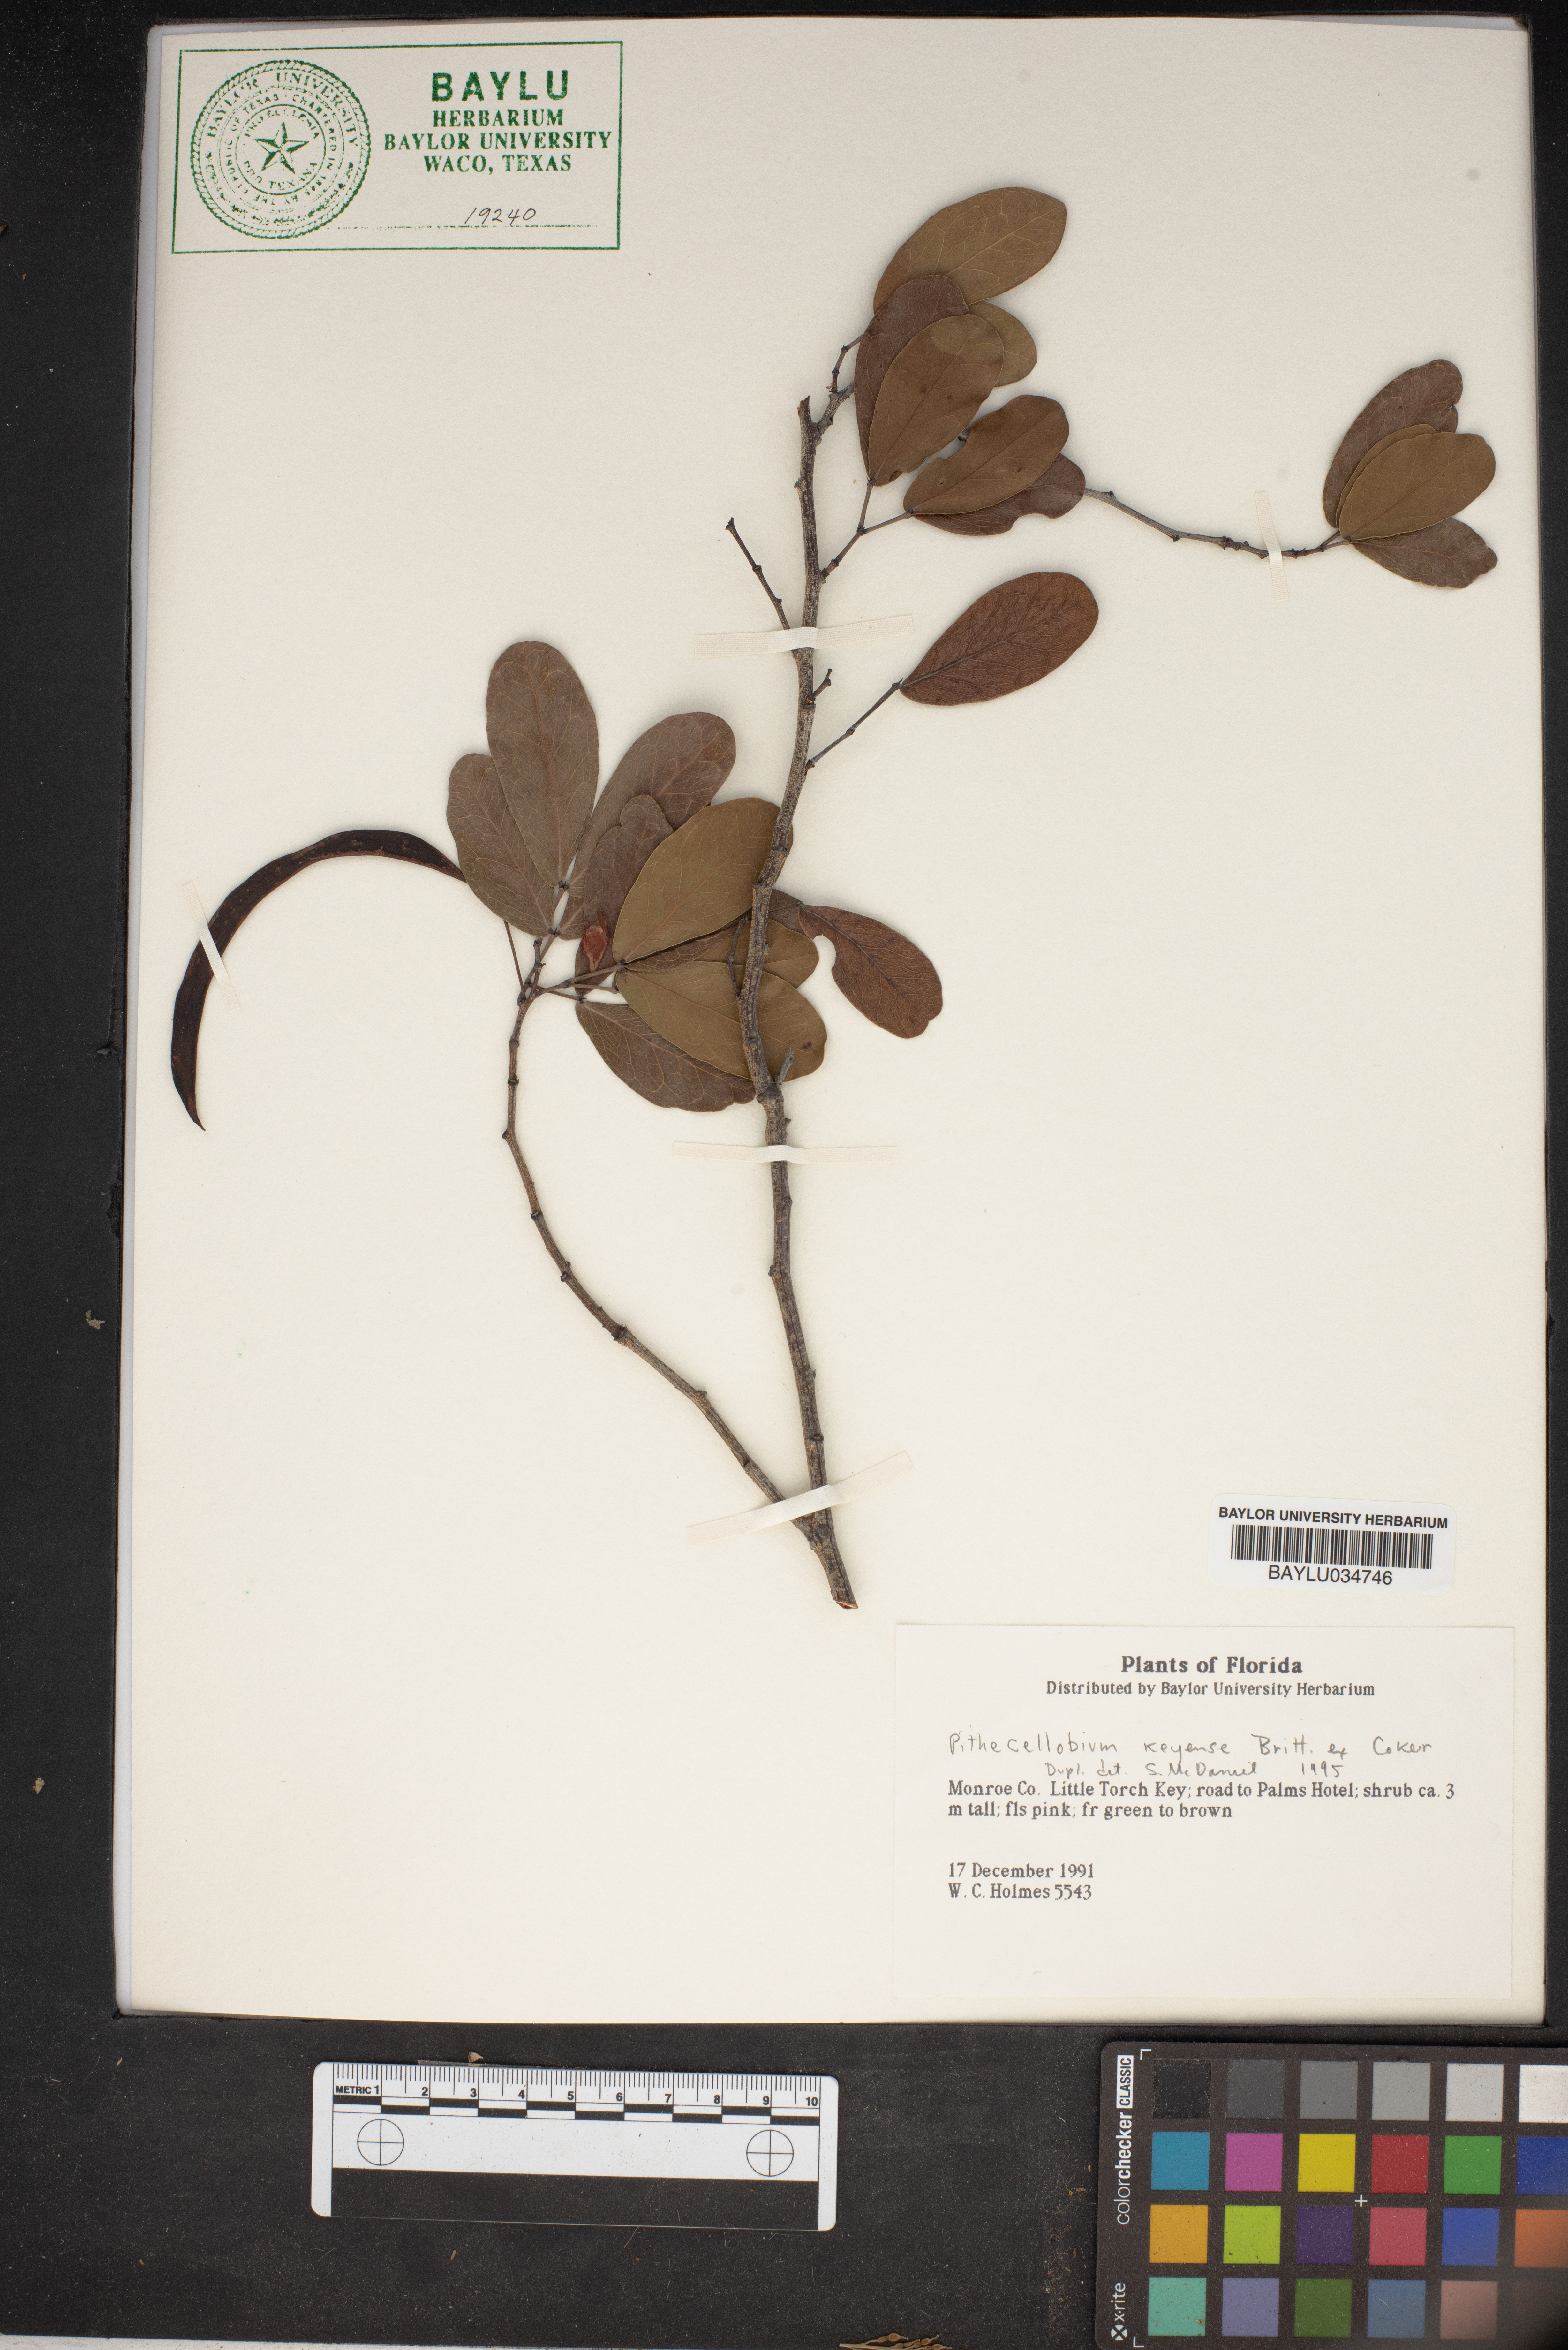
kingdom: Plantae
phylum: Tracheophyta
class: Magnoliopsida
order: Fabales
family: Fabaceae
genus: Pithecellobium
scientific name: Pithecellobium keyense
